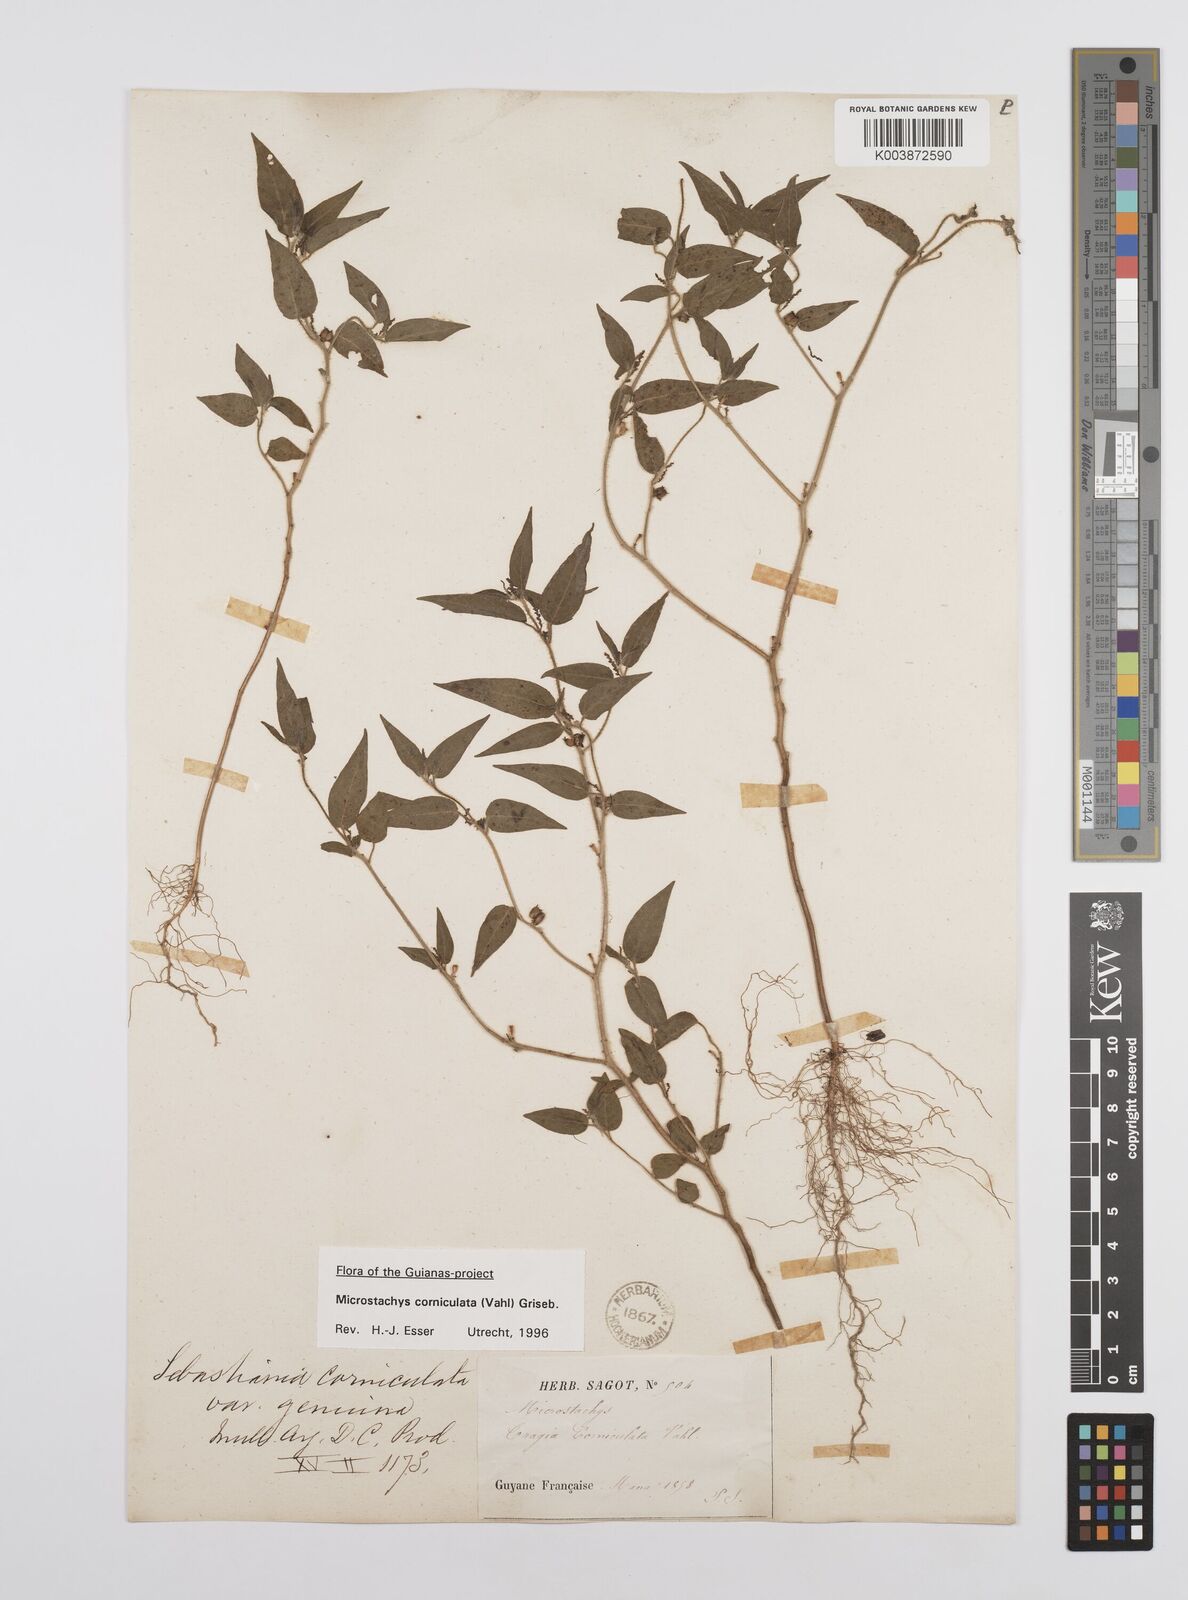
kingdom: Plantae
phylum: Tracheophyta
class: Magnoliopsida
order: Malpighiales
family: Euphorbiaceae
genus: Microstachys
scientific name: Microstachys corniculata
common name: Hato tejas
